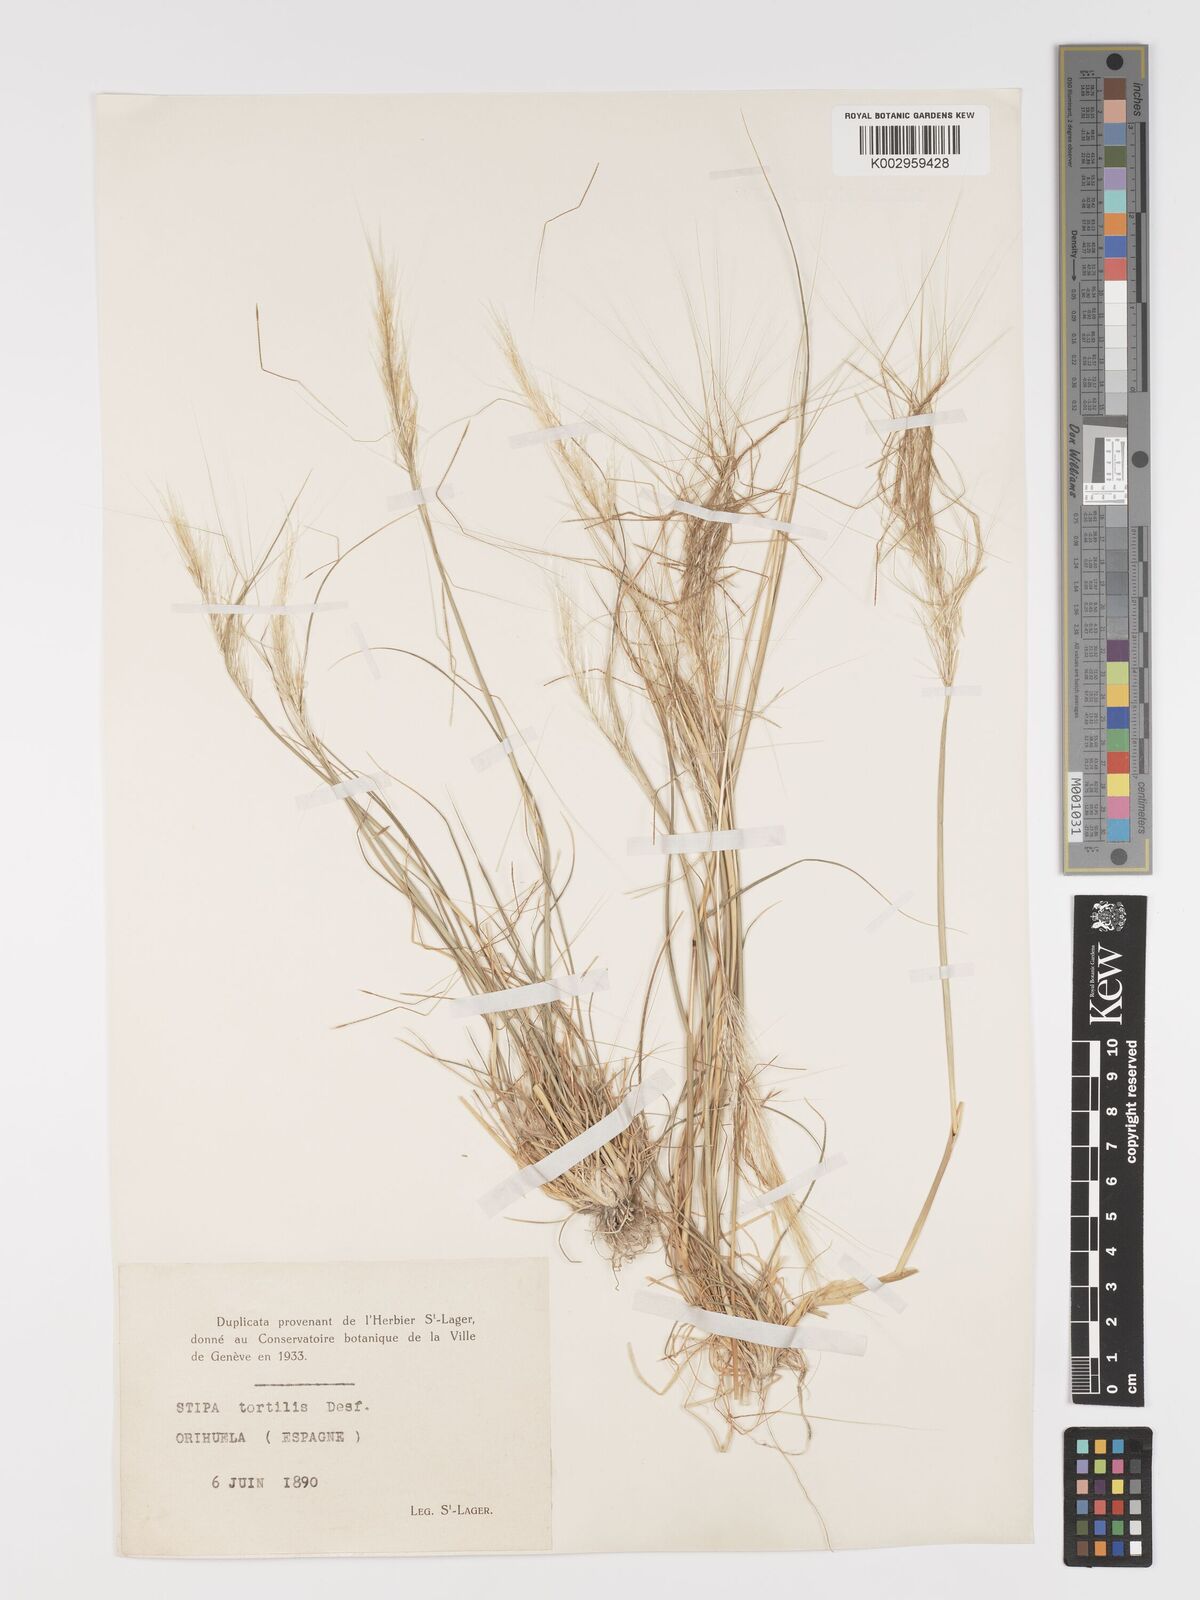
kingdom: Plantae
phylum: Tracheophyta
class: Liliopsida
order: Poales
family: Poaceae
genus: Stipa
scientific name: Stipa
